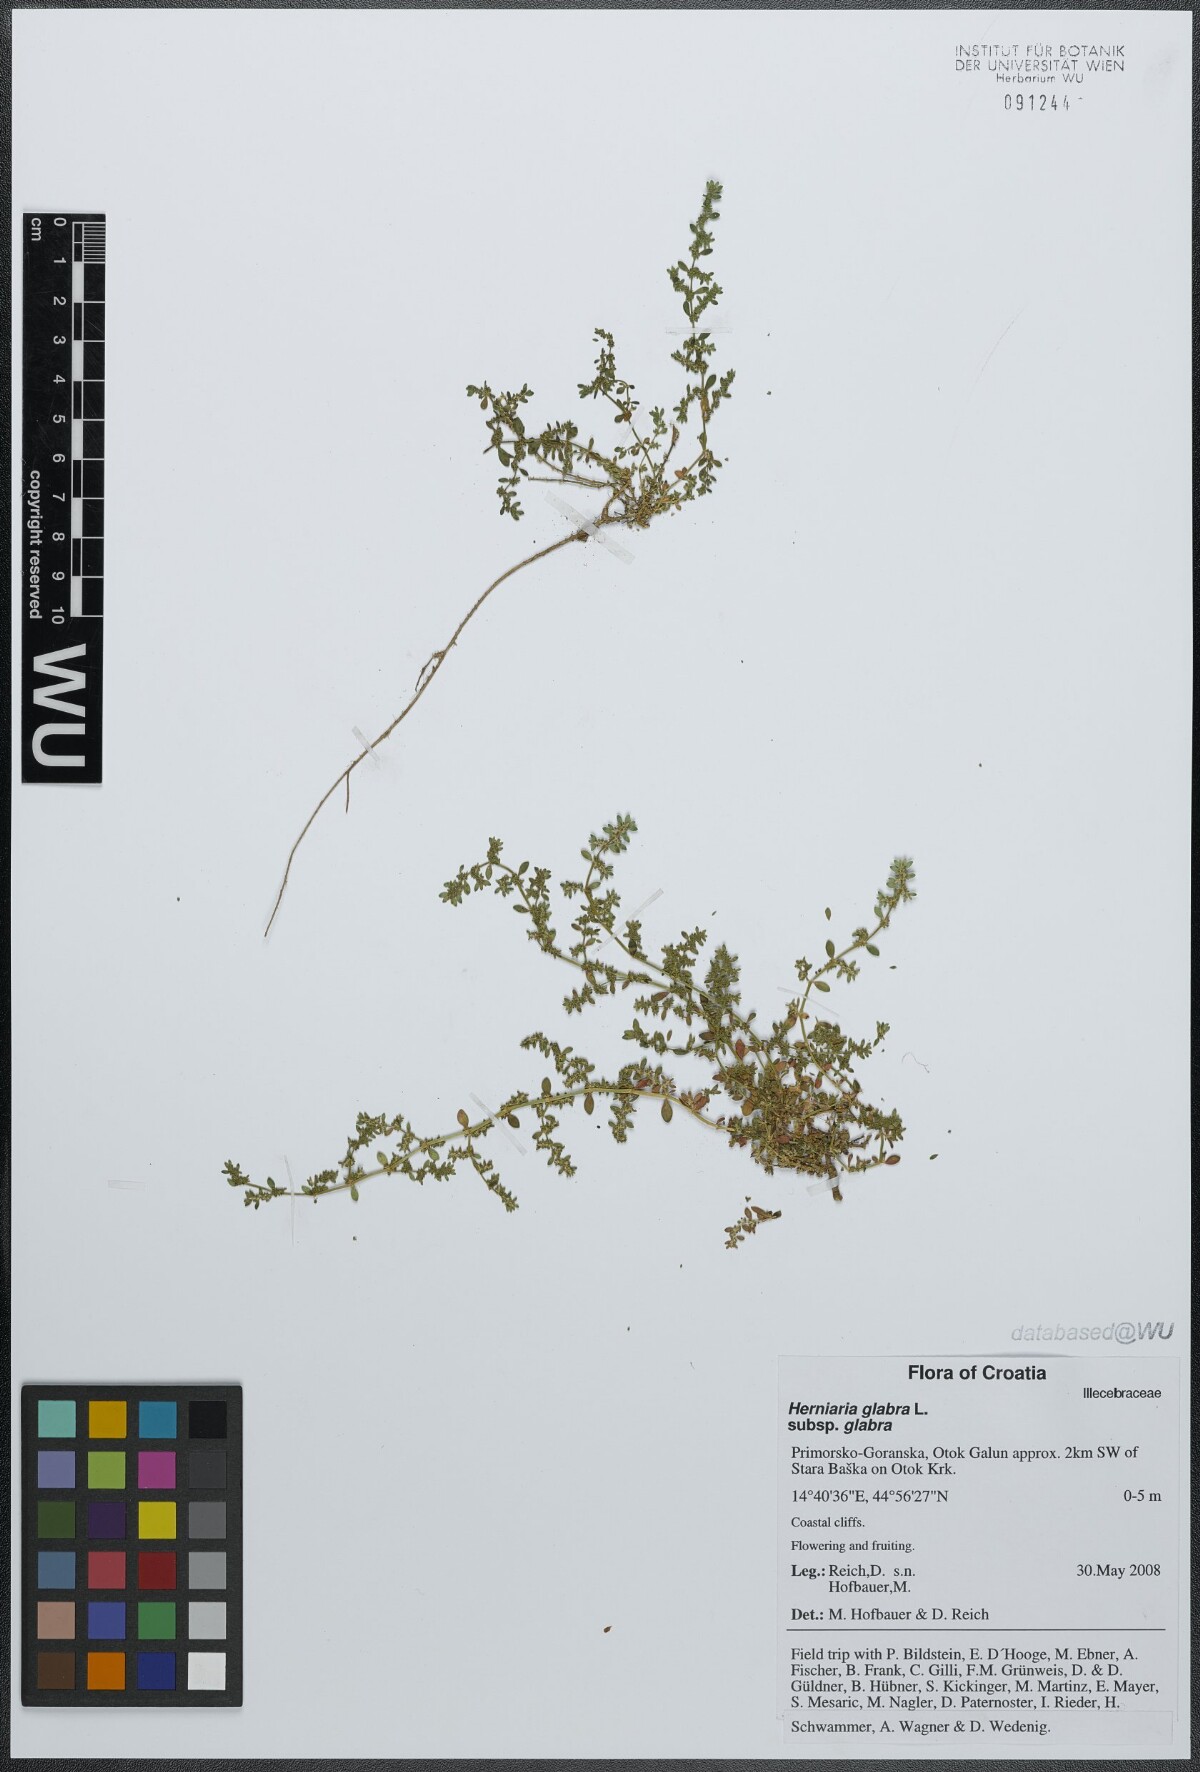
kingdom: Plantae
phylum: Tracheophyta
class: Magnoliopsida
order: Caryophyllales
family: Caryophyllaceae
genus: Herniaria
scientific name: Herniaria glabra
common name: Smooth rupturewort
